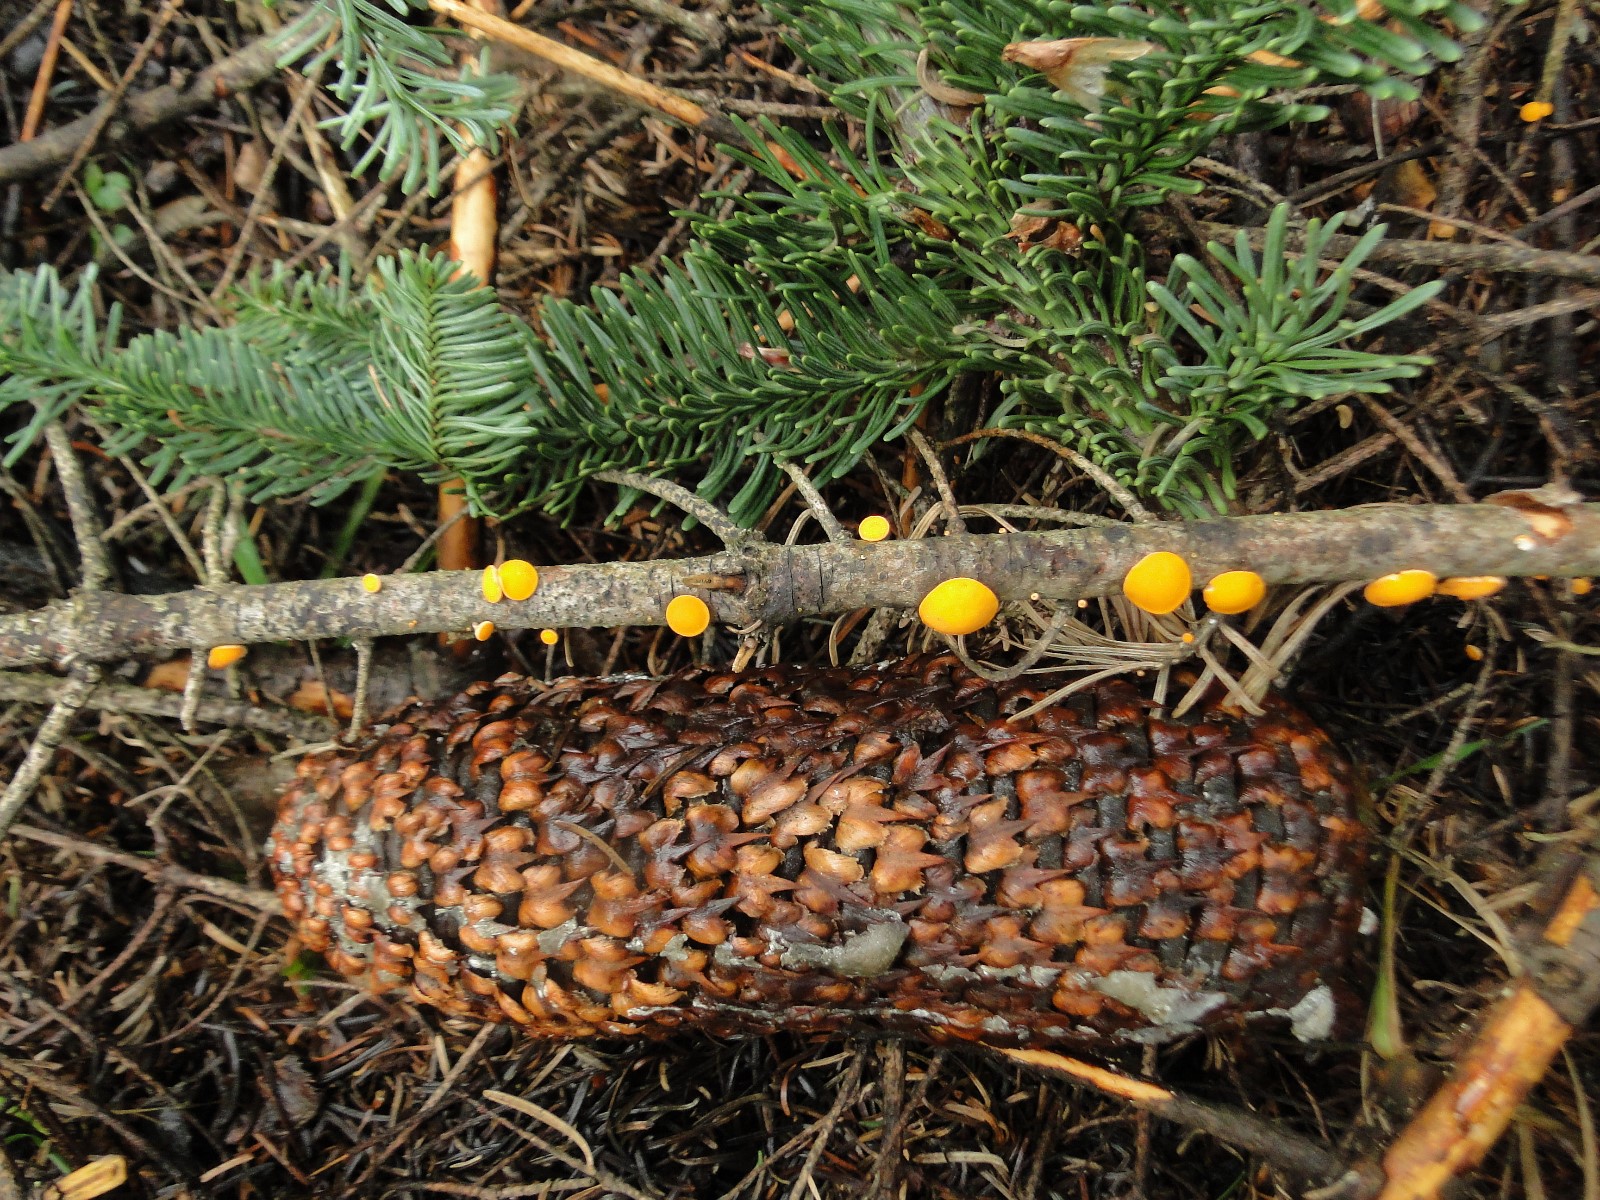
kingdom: Fungi
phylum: Ascomycota
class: Pezizomycetes
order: Pezizales
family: Sarcoscyphaceae
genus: Pithya
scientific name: Pithya vulgaris
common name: stor dukatbæger
